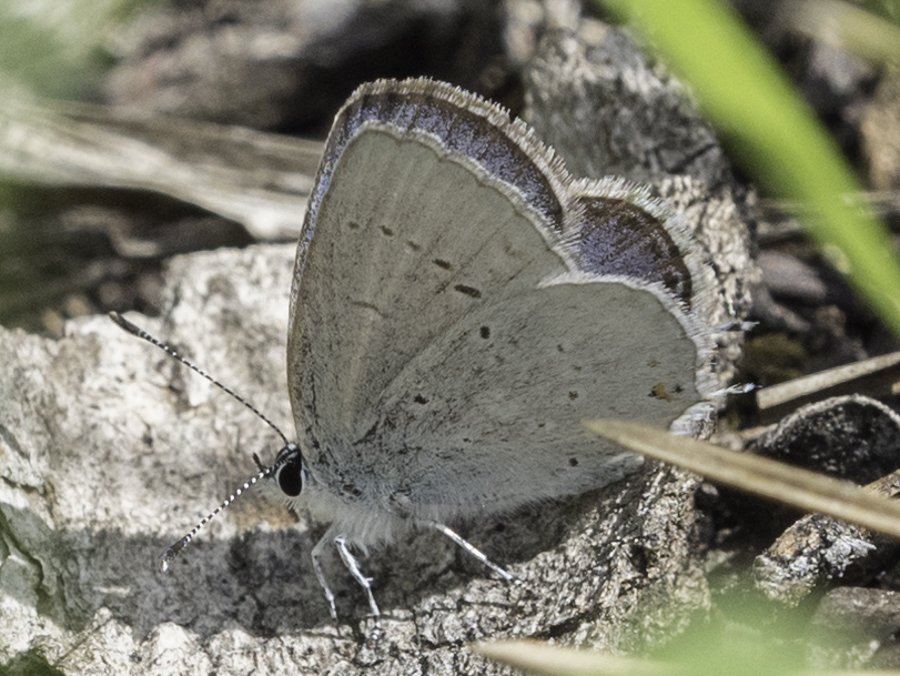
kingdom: Animalia
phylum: Arthropoda
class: Insecta
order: Lepidoptera
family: Lycaenidae
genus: Elkalyce
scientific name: Elkalyce amyntula
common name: Western Tailed-Blue
